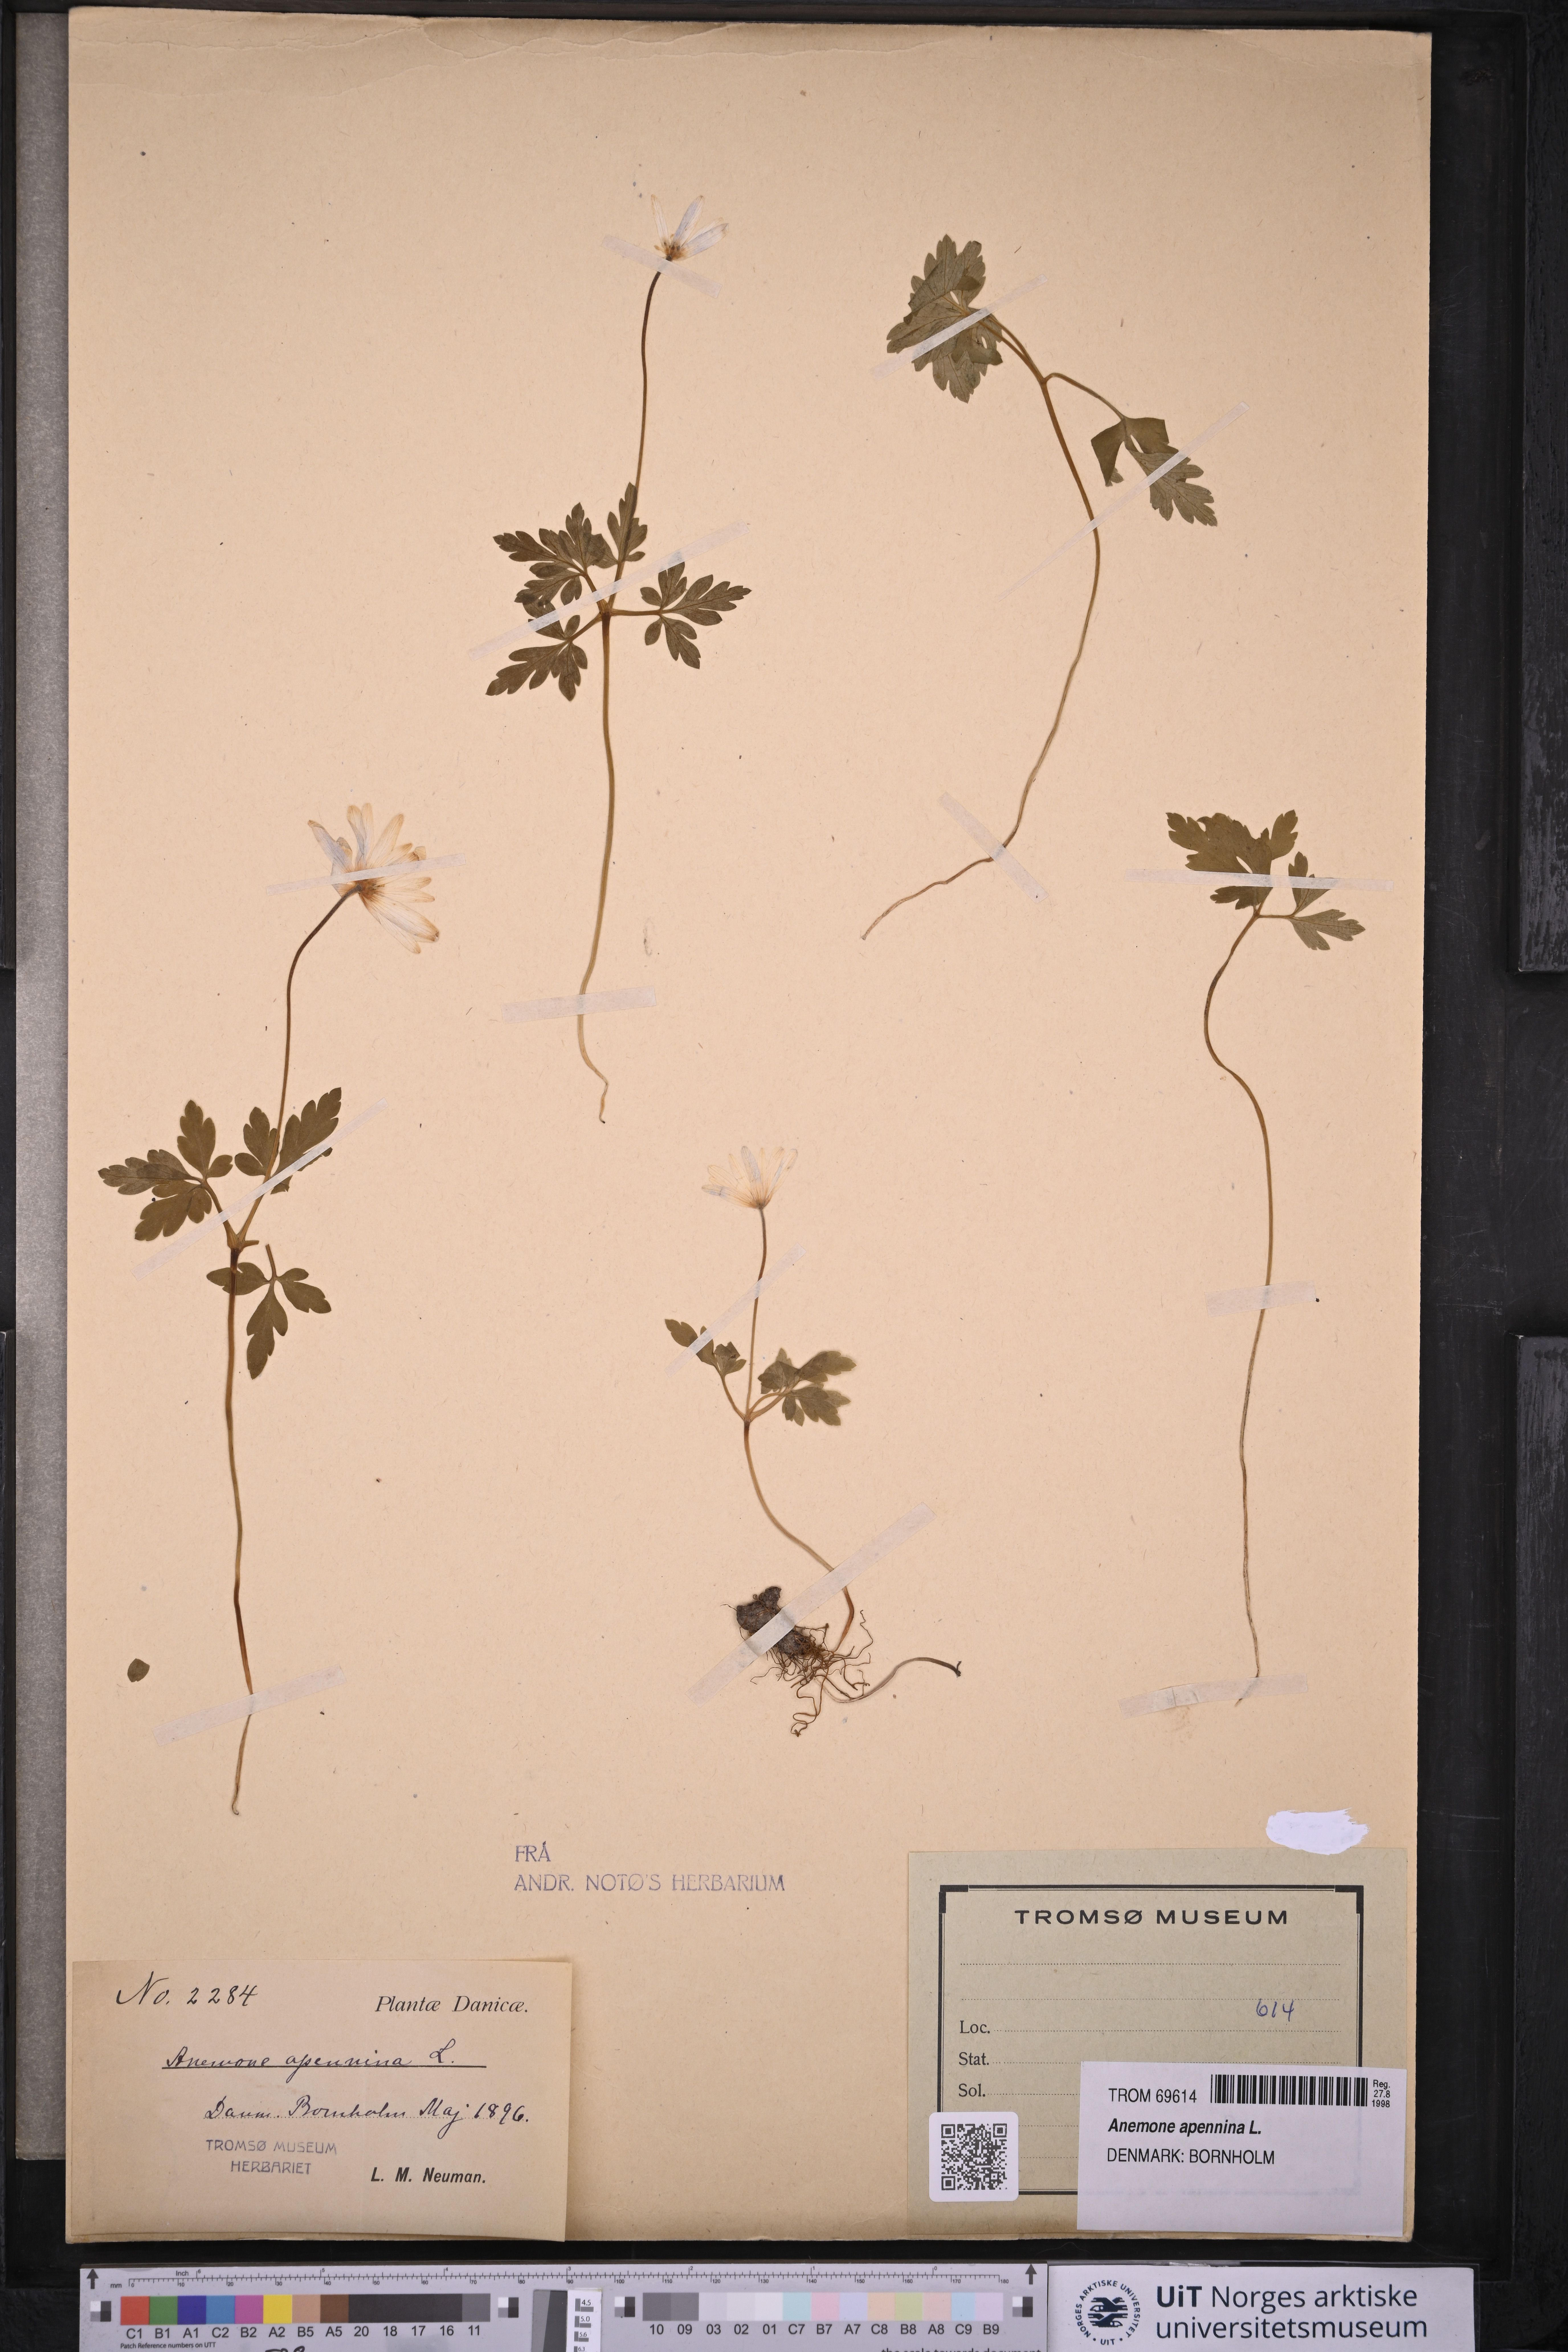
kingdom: Plantae
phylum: Tracheophyta
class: Magnoliopsida
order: Ranunculales
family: Ranunculaceae
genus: Anemone
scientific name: Anemone apennina
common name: Blue anemone
